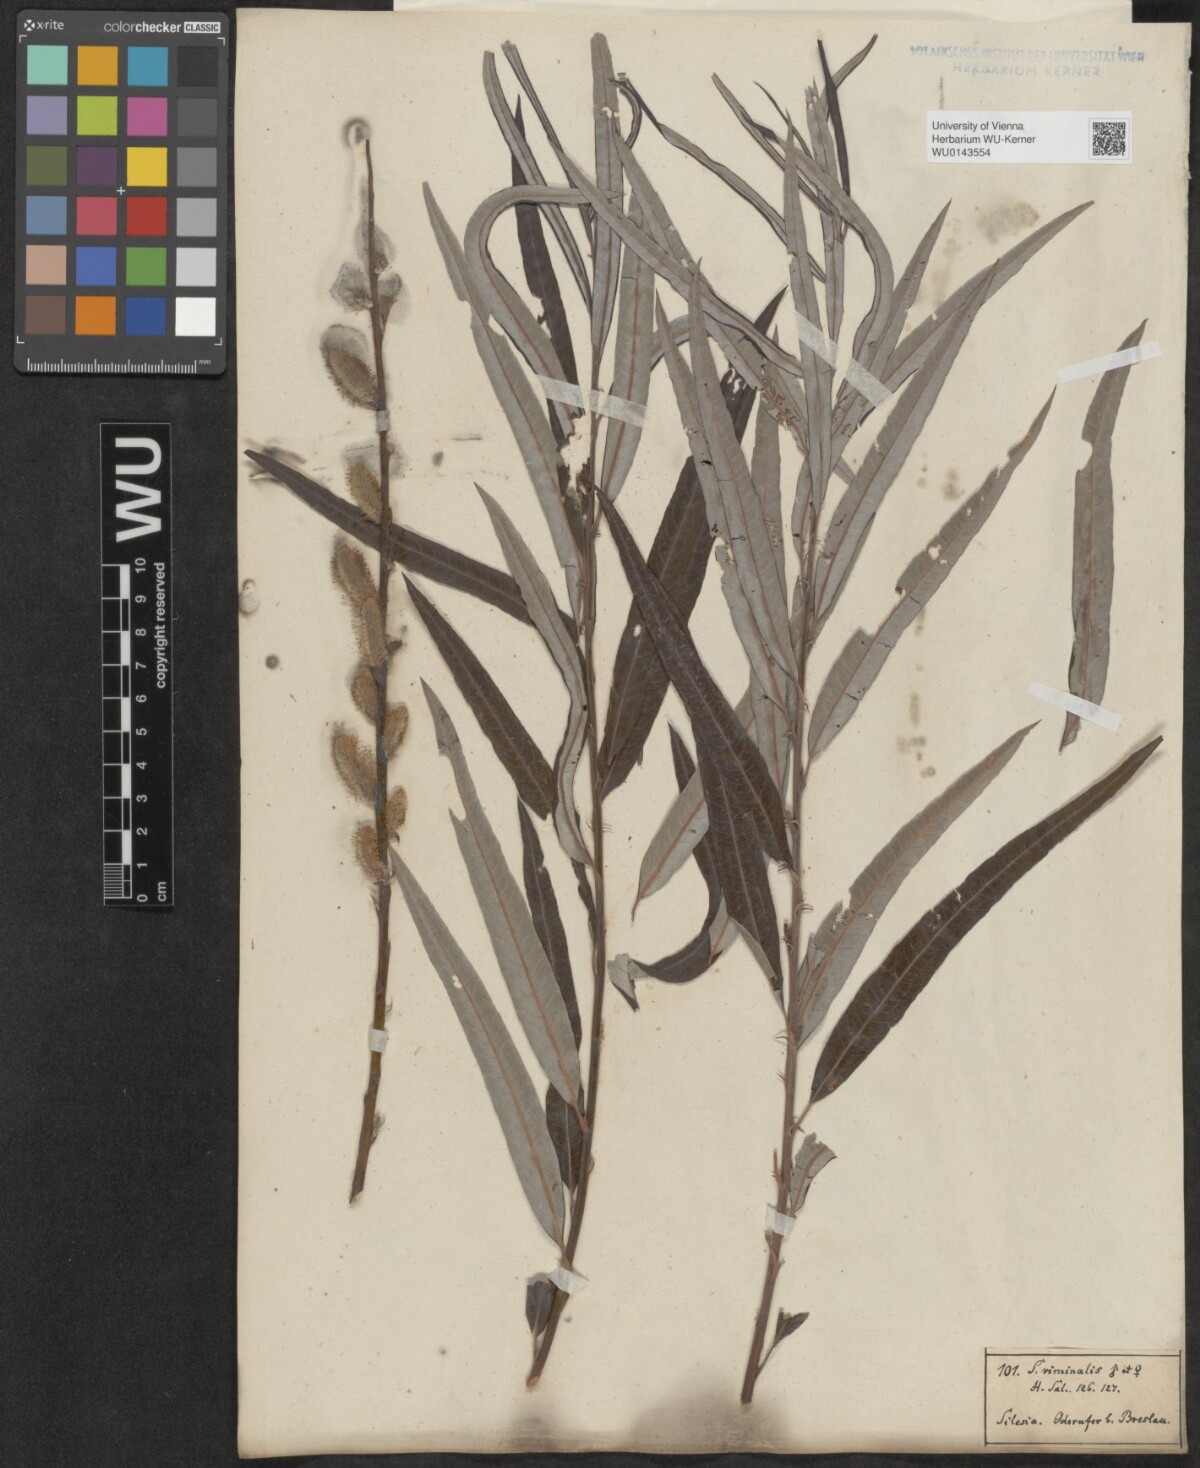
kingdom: Plantae
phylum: Tracheophyta
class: Magnoliopsida
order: Malpighiales
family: Salicaceae
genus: Salix
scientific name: Salix viminalis
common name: Osier
